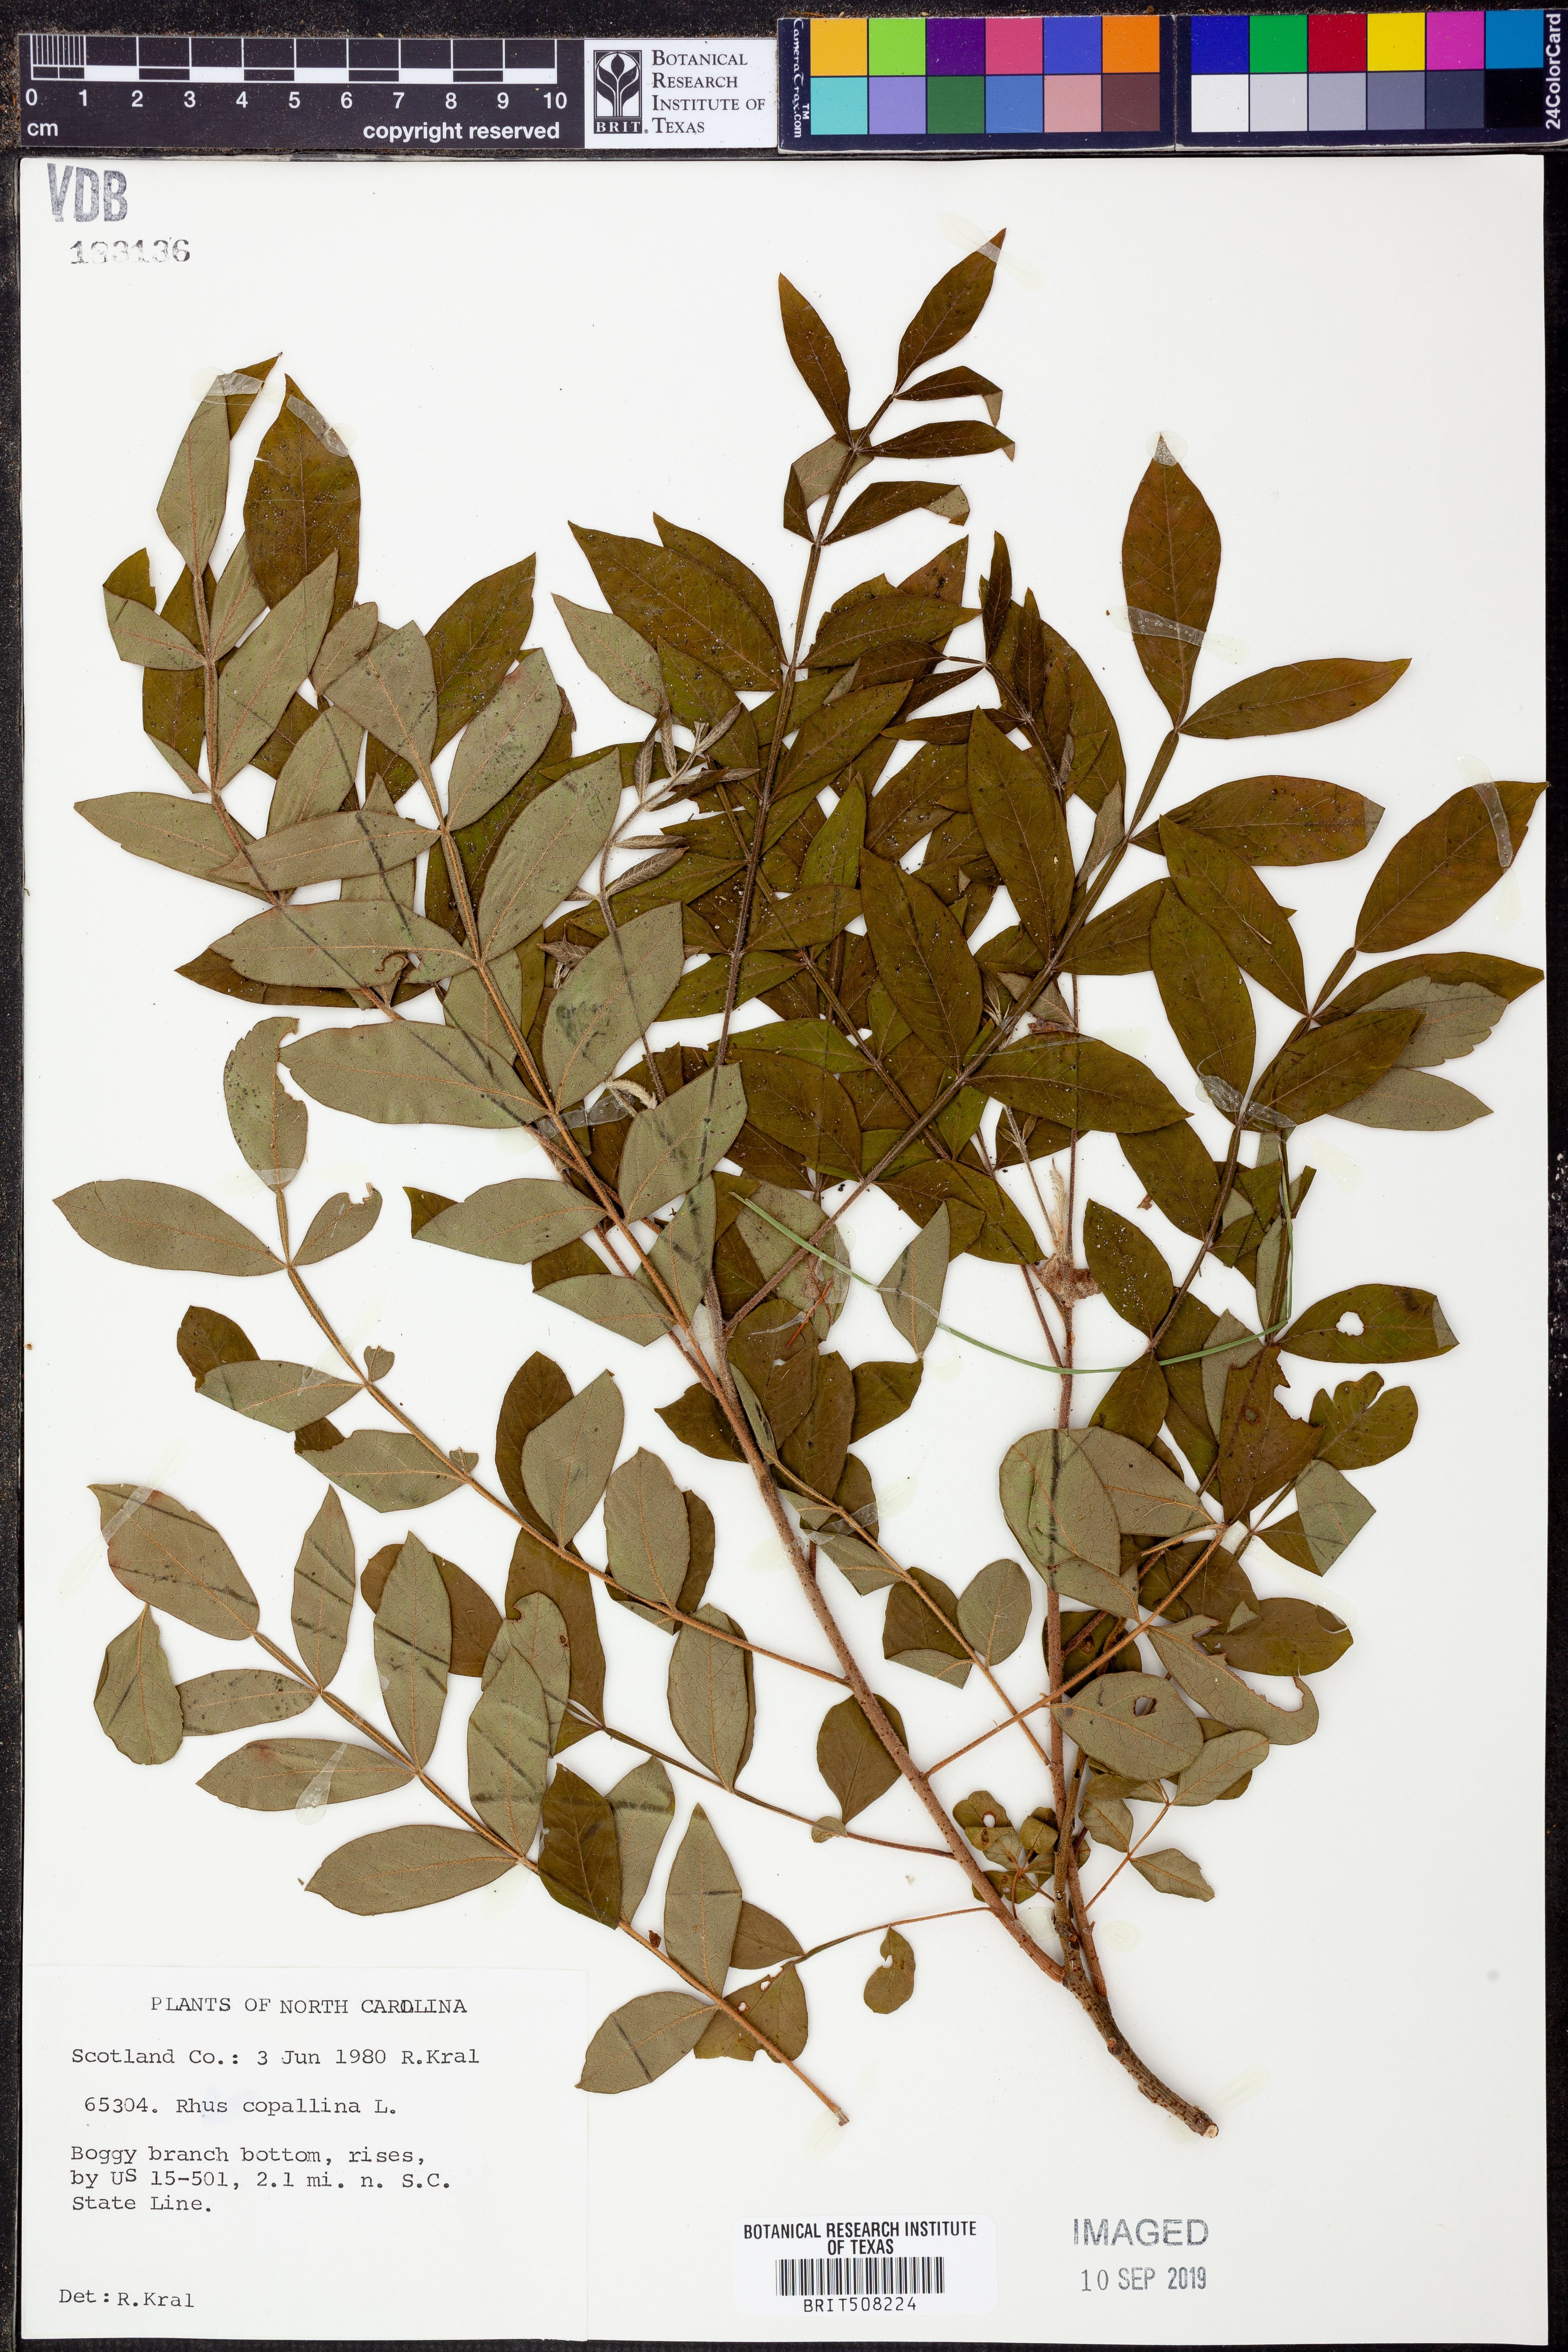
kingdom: Plantae
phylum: Tracheophyta
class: Magnoliopsida
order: Sapindales
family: Anacardiaceae
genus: Rhus
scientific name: Rhus copallina
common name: Shining sumac
